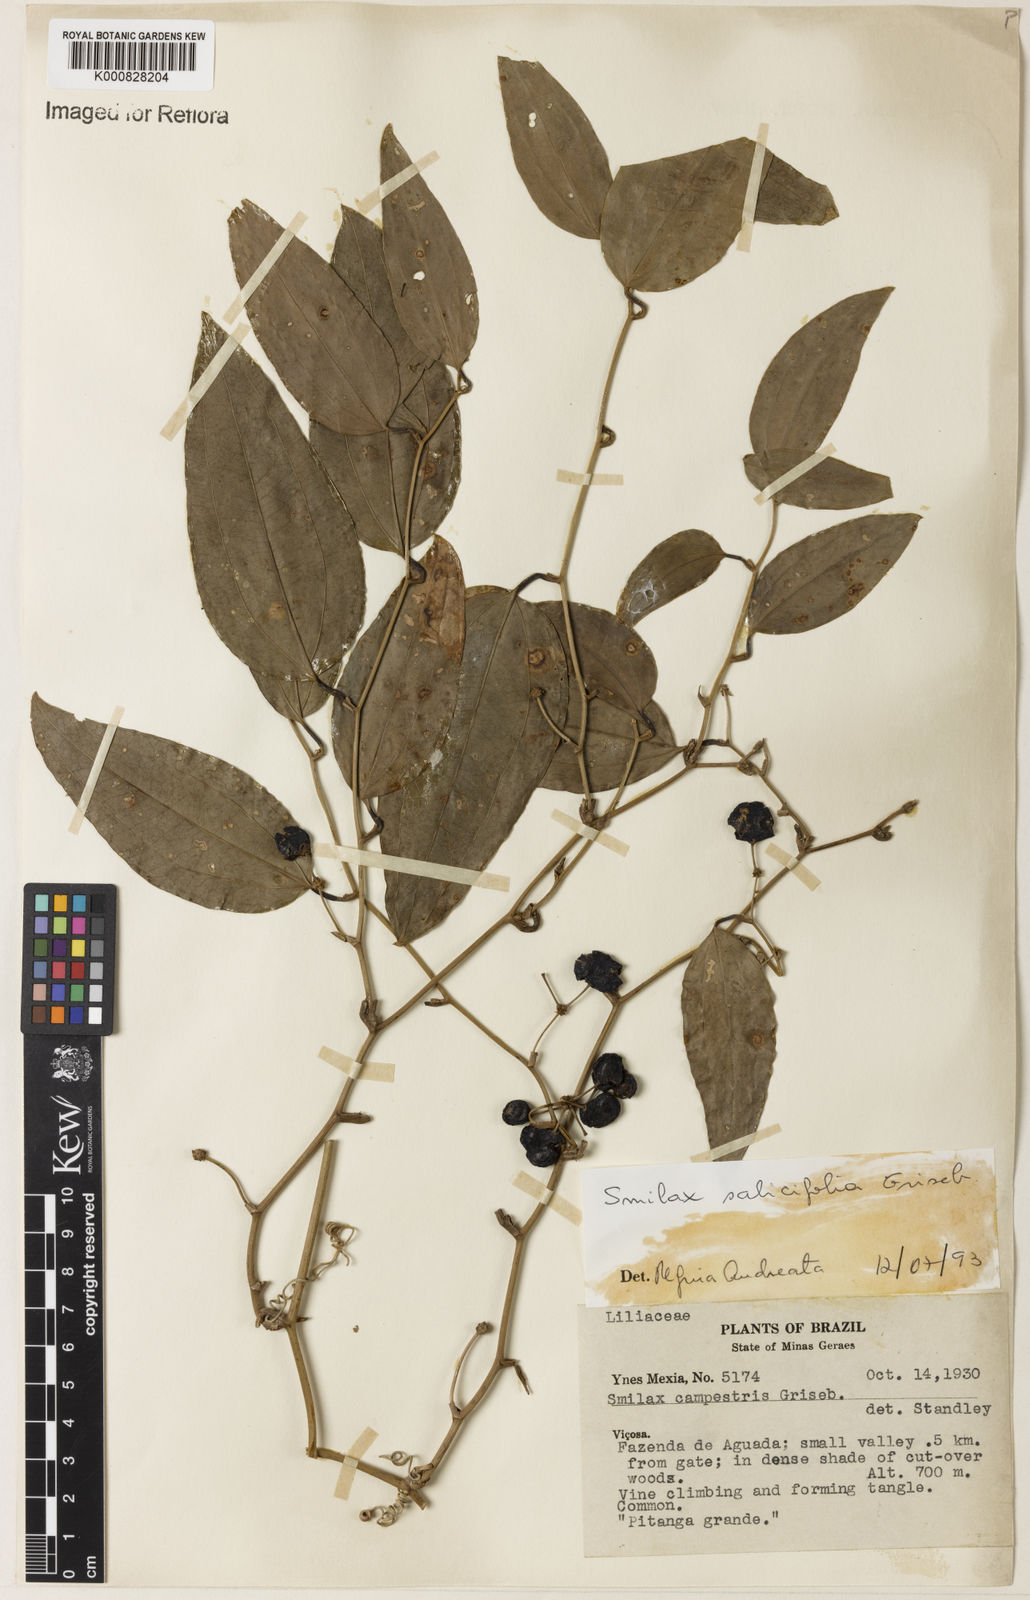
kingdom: Plantae
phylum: Tracheophyta
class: Liliopsida
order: Liliales
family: Smilacaceae
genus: Smilax
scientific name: Smilax salicifolia
